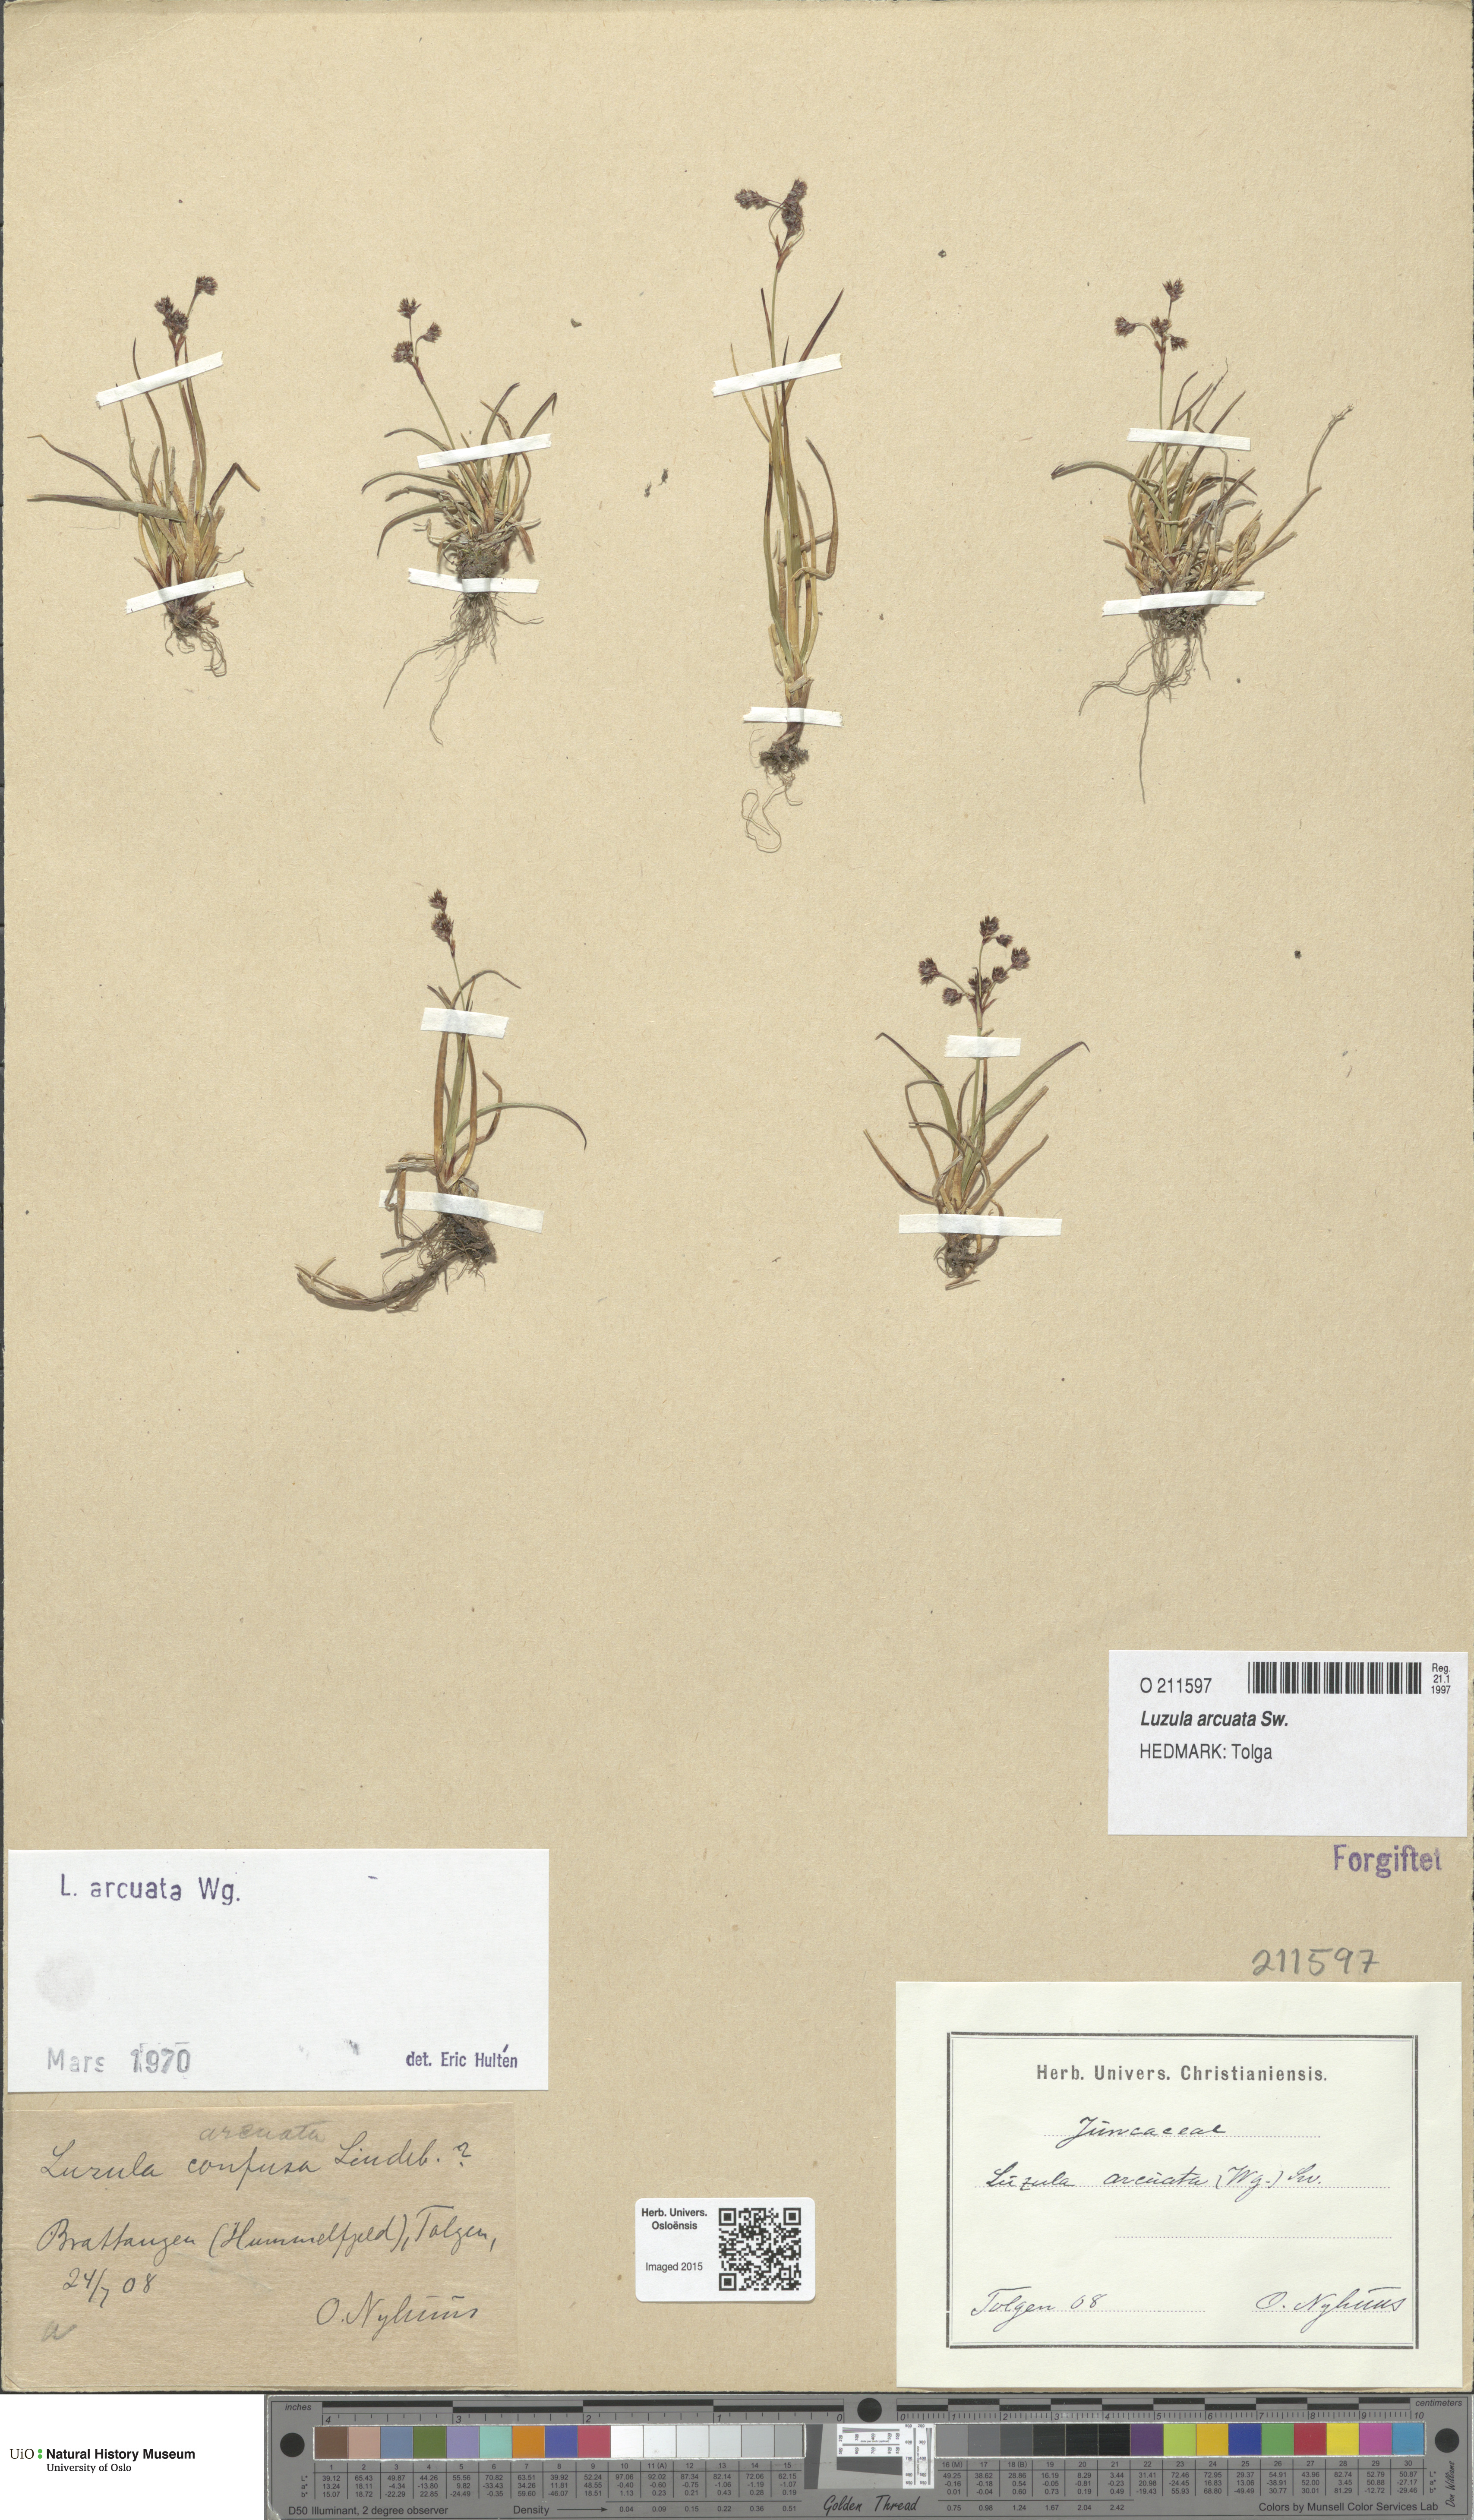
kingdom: Plantae
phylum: Tracheophyta
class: Liliopsida
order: Poales
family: Juncaceae
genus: Luzula
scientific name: Luzula arcuata
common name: Curved wood-rush
